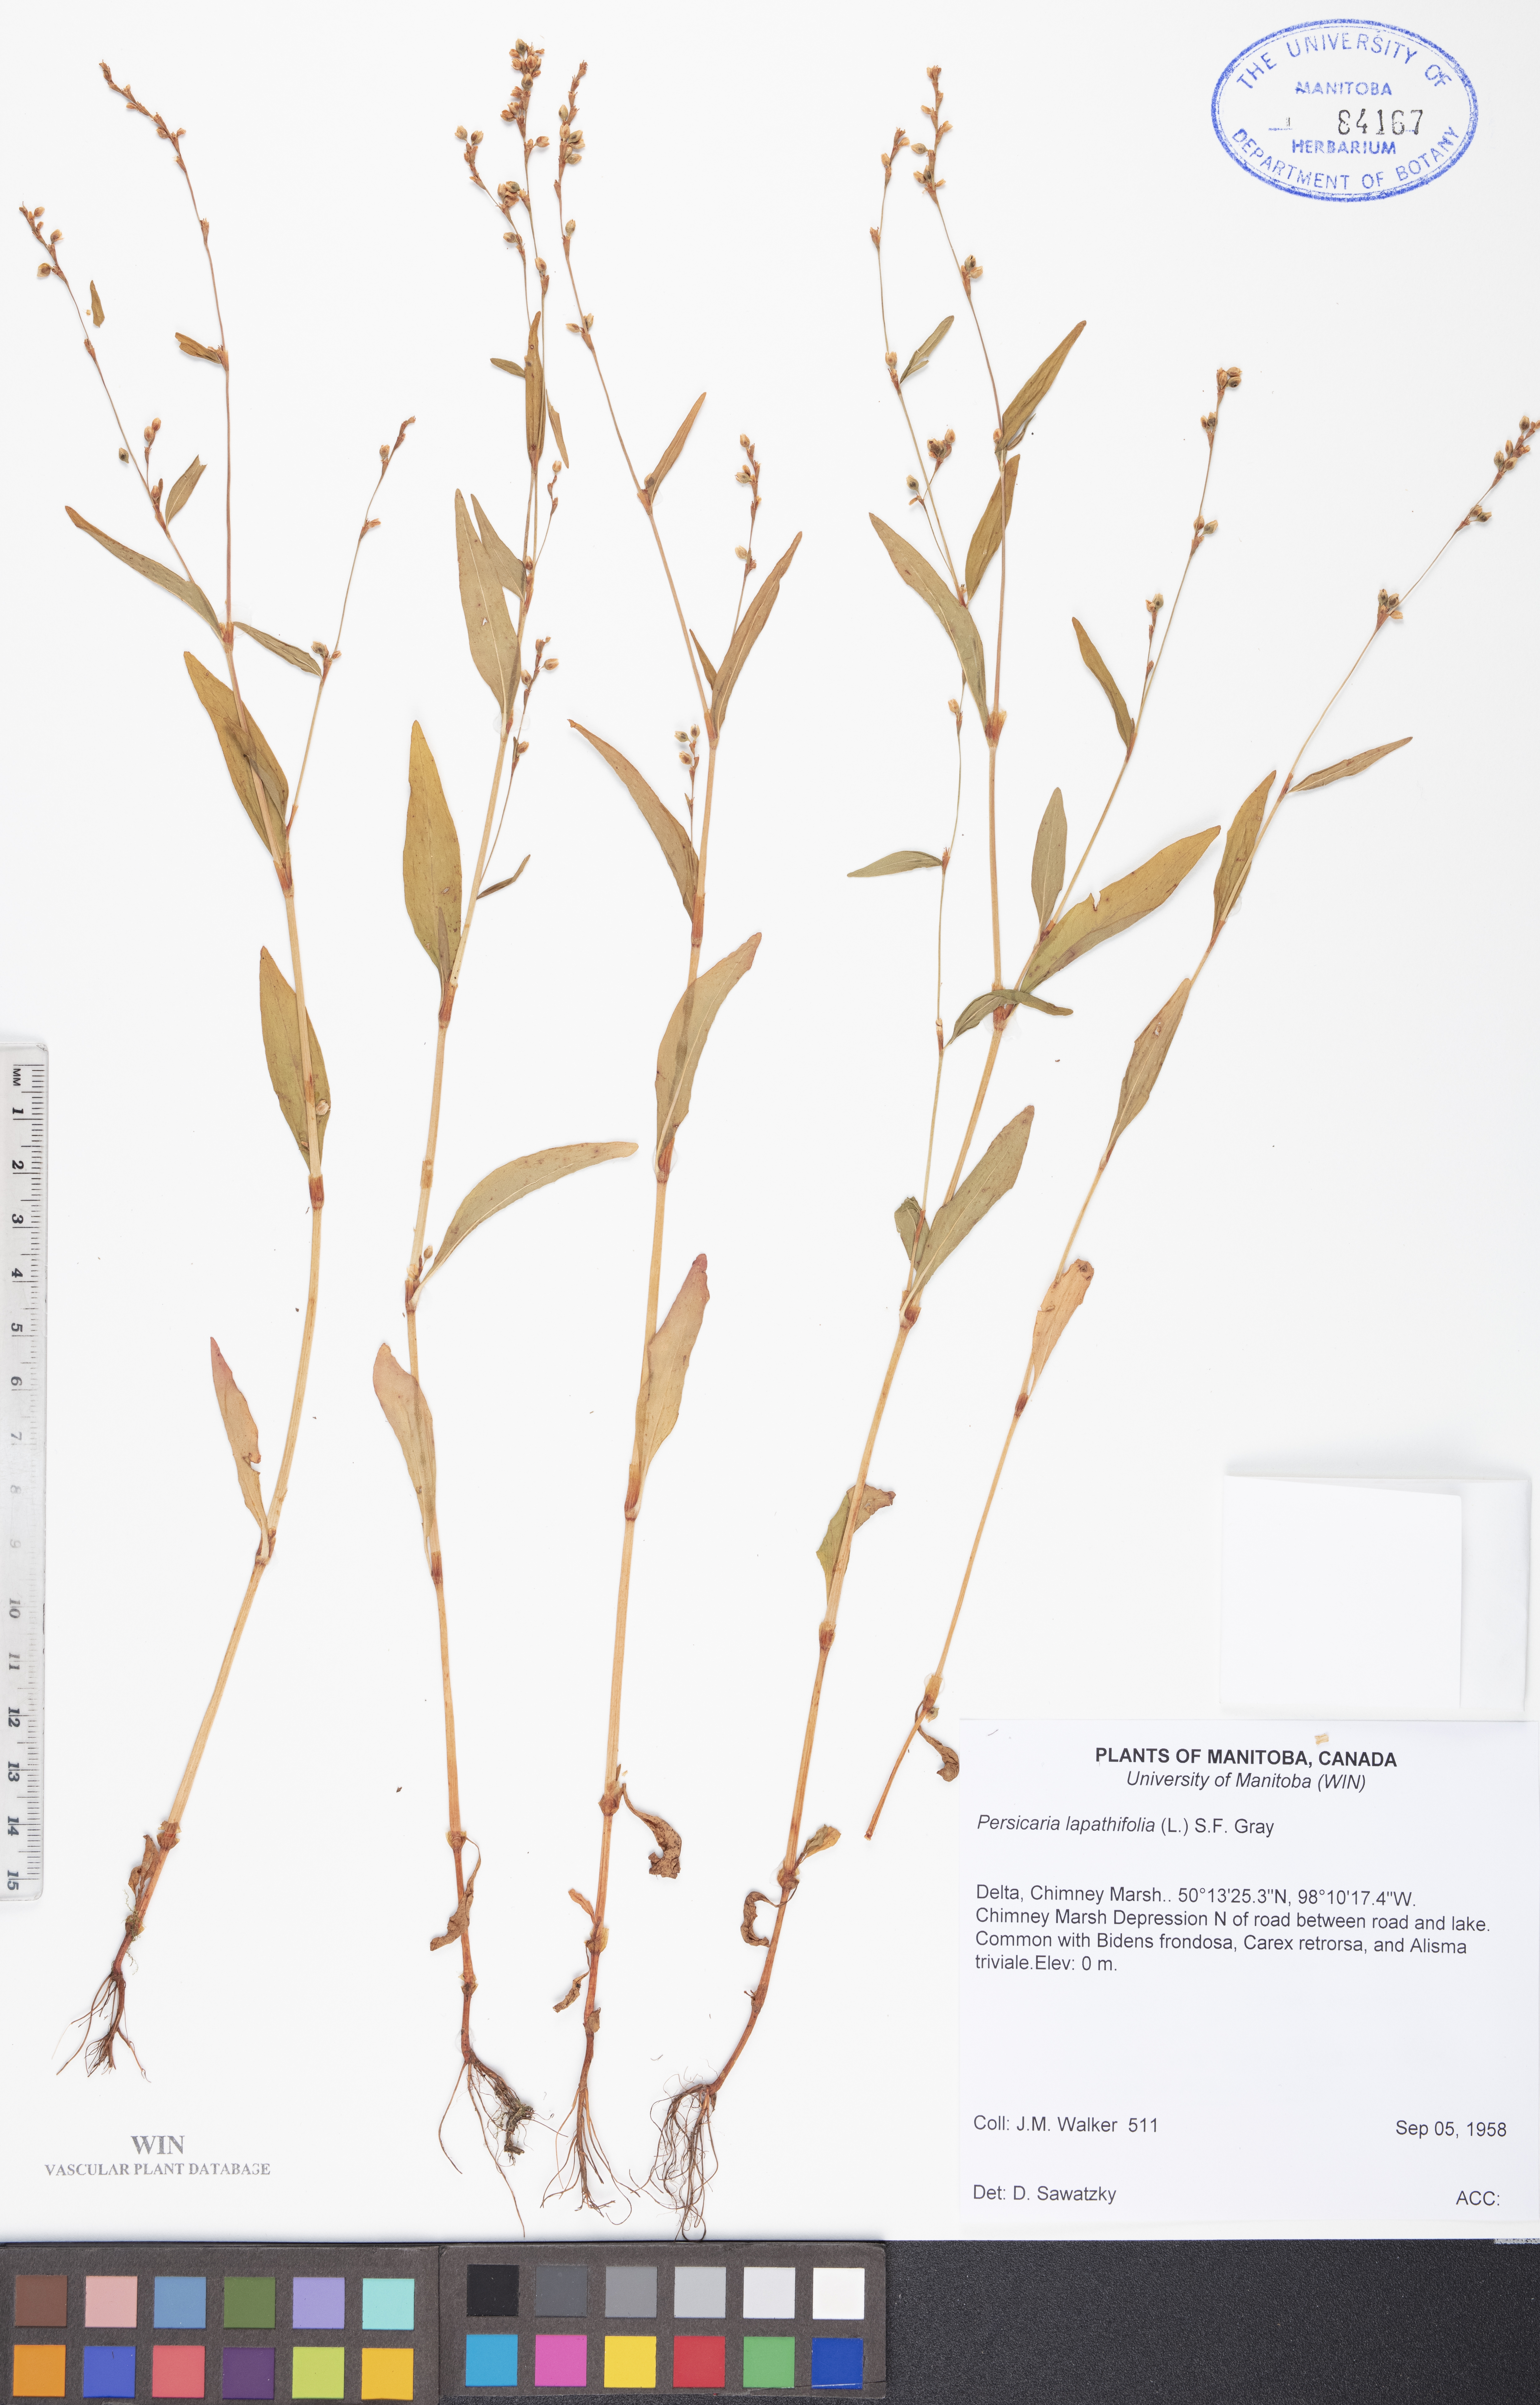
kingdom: Plantae
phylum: Tracheophyta
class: Magnoliopsida
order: Caryophyllales
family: Polygonaceae
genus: Persicaria
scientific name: Persicaria lapathifolia
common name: Curlytop knotweed
